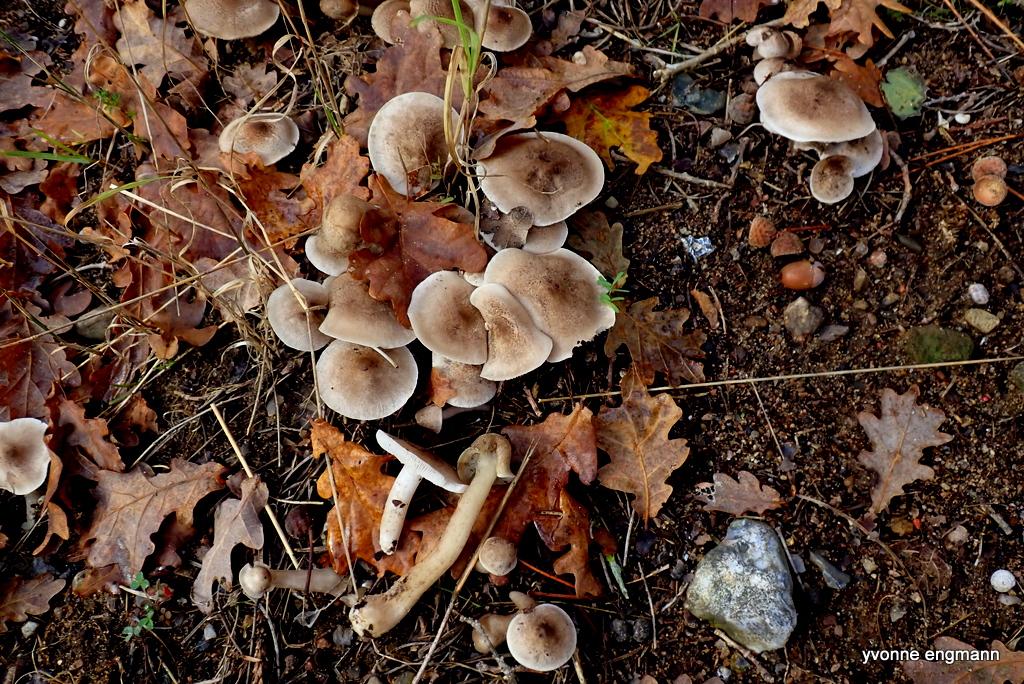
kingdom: Fungi
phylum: Basidiomycota
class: Agaricomycetes
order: Agaricales
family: Tricholomataceae
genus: Tricholoma
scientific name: Tricholoma scalpturatum
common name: gulplettet ridderhat
